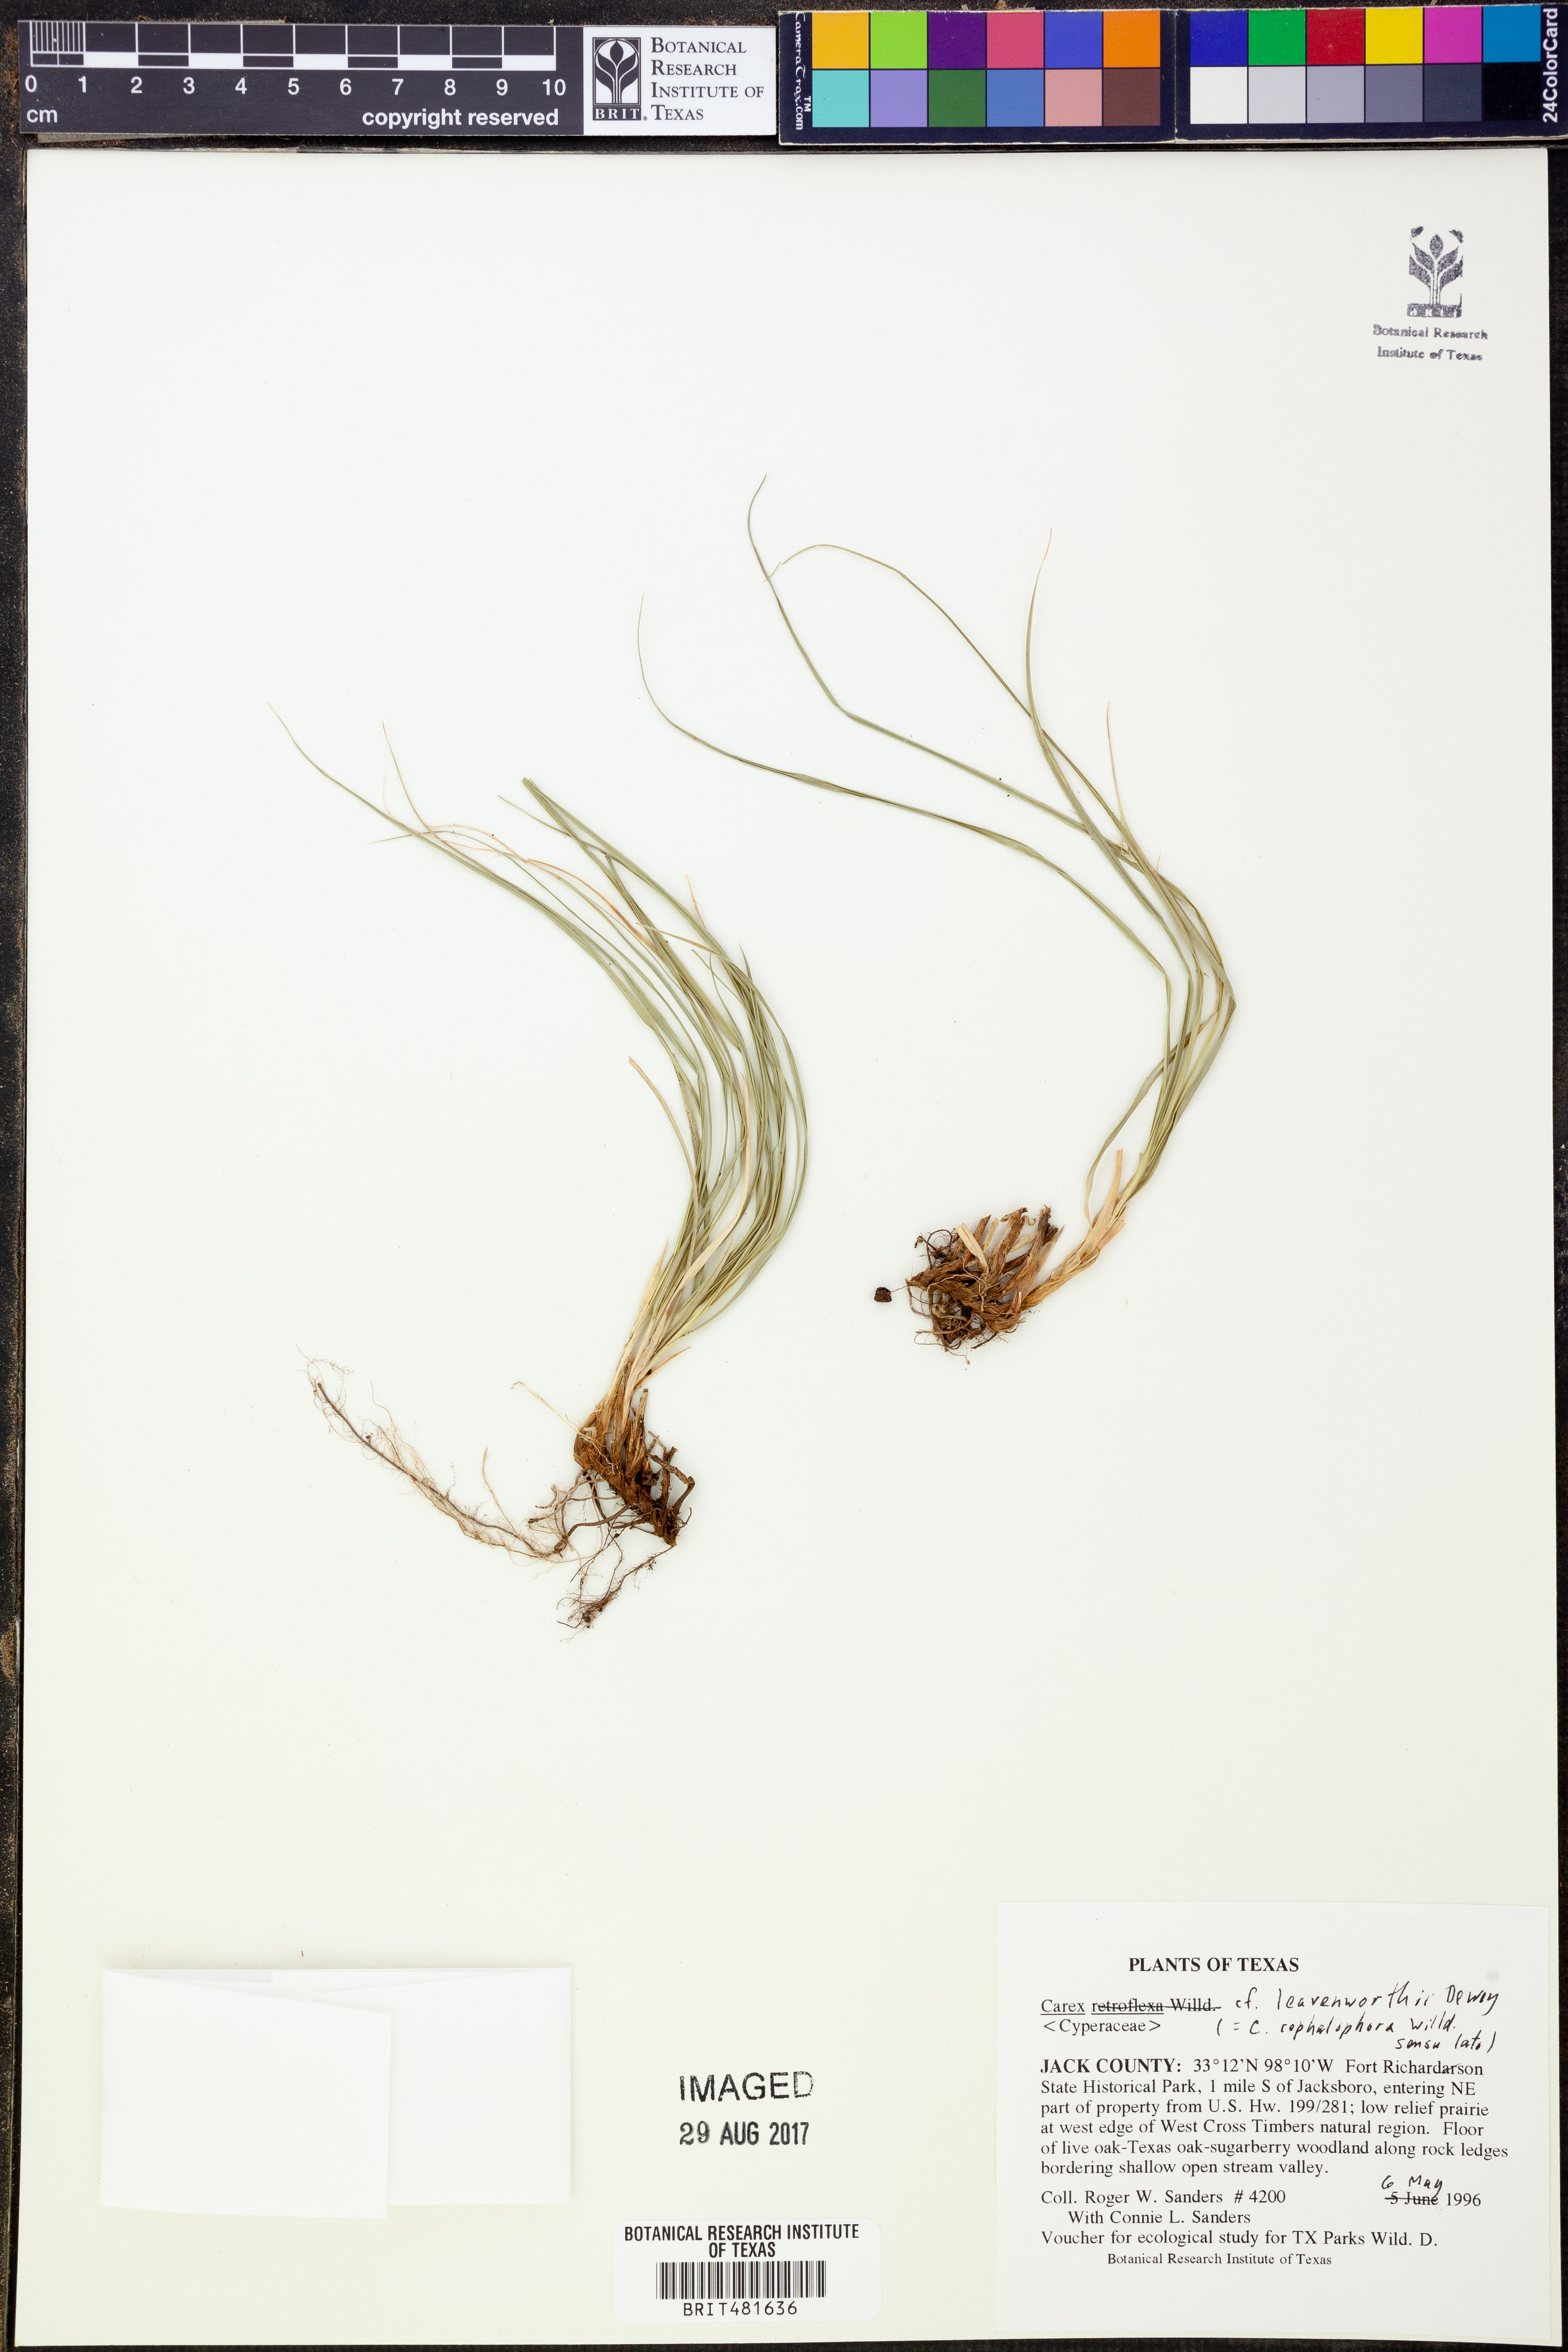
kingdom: Plantae
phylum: Tracheophyta
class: Liliopsida
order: Poales
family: Cyperaceae
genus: Carex
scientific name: Carex leavenworthii
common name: Leavenworth's bracted sedge
